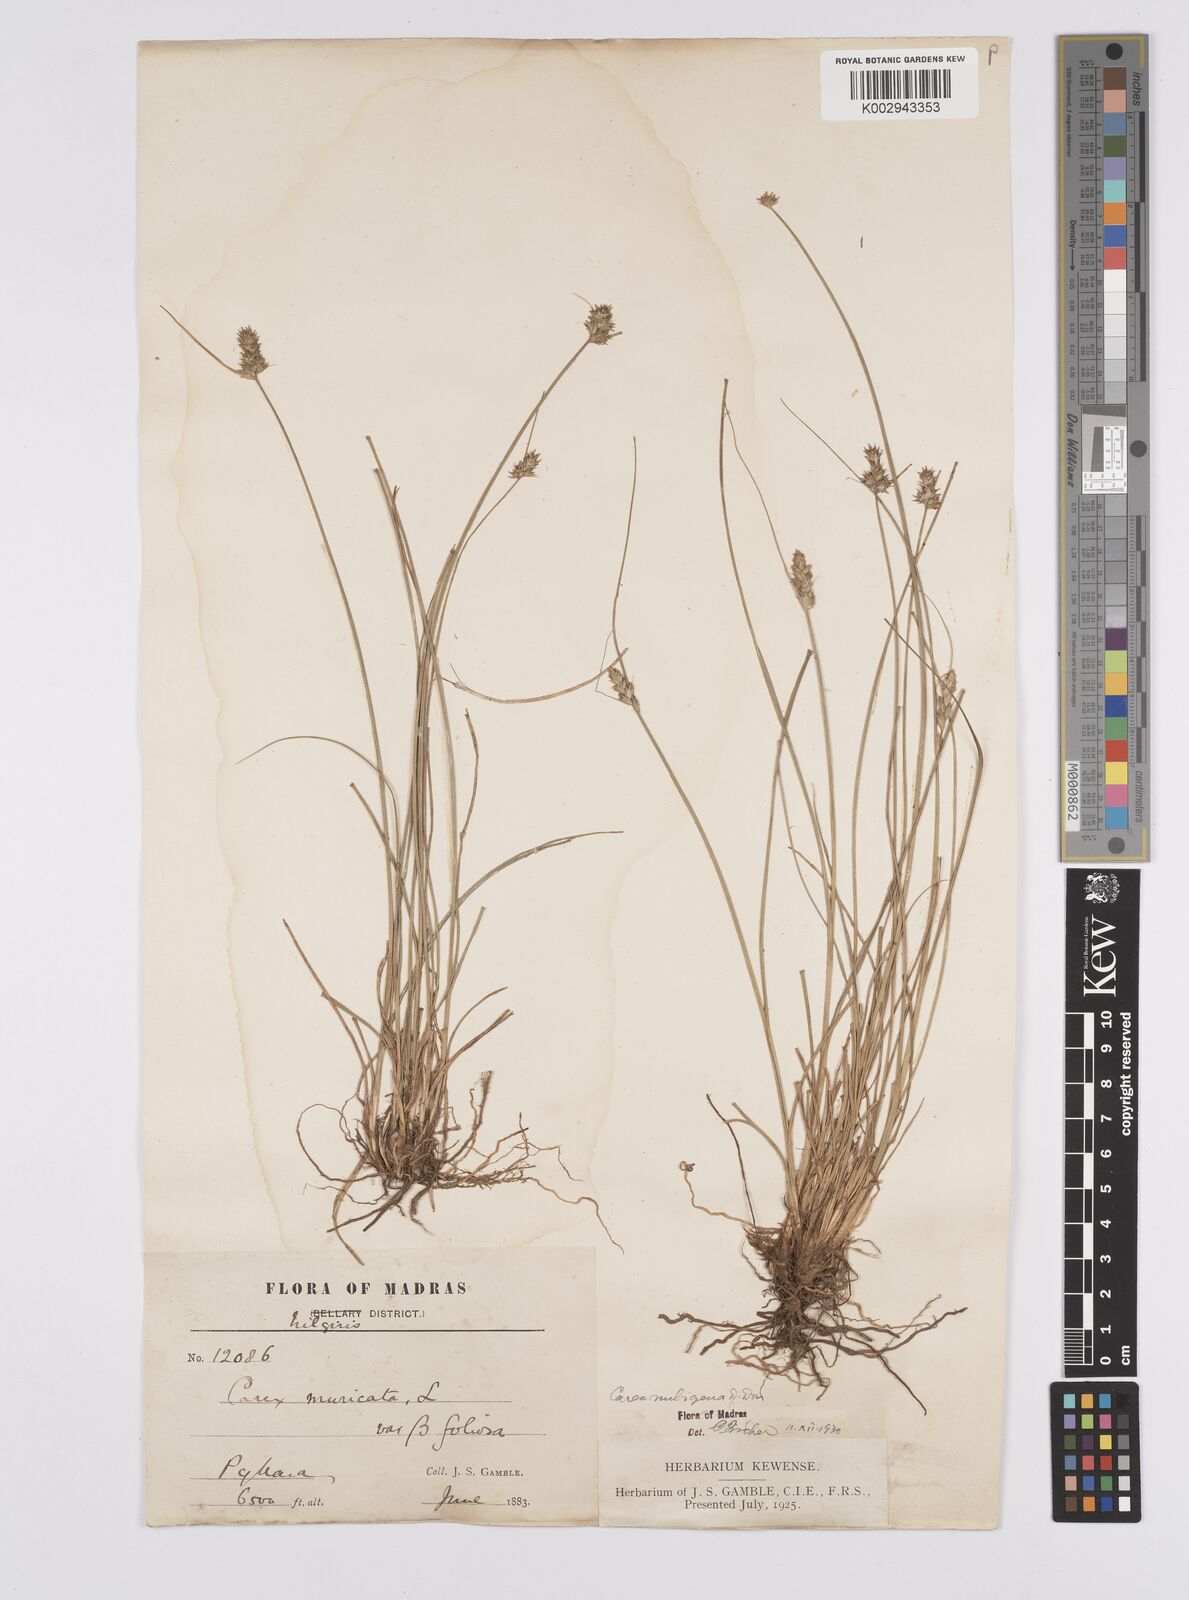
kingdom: Plantae
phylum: Tracheophyta
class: Liliopsida
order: Poales
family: Cyperaceae
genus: Carex
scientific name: Carex nubigena
